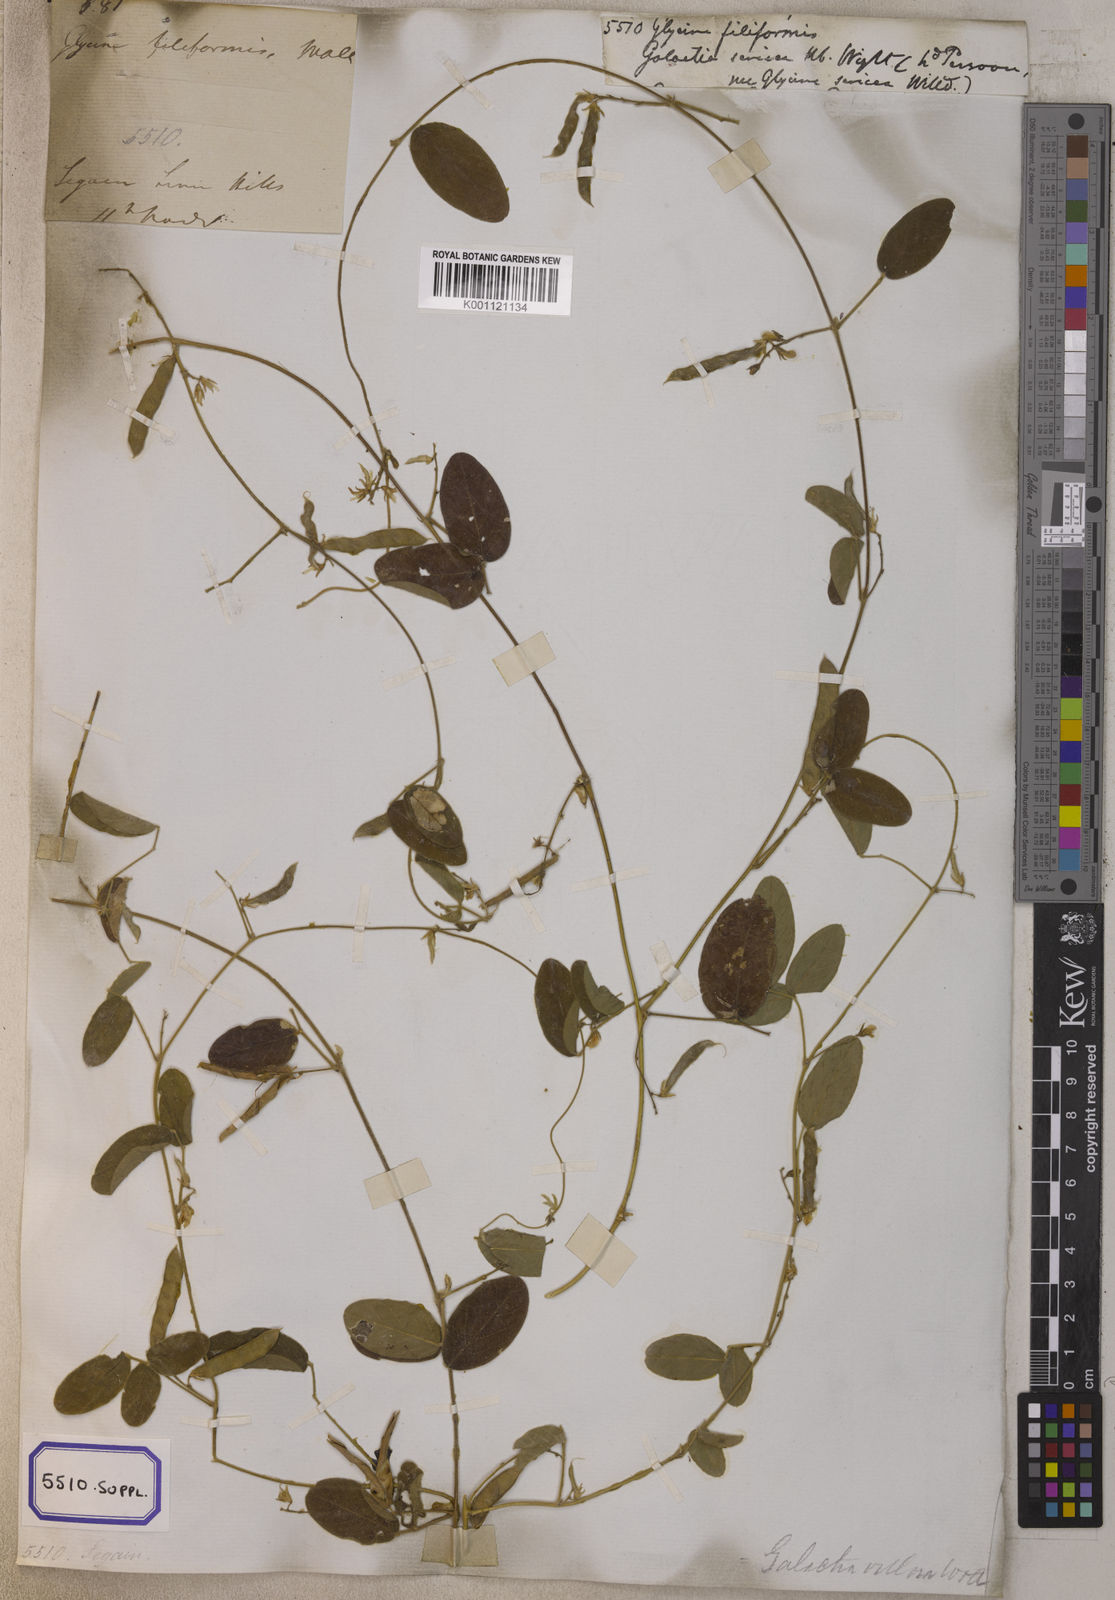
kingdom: Plantae
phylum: Tracheophyta
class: Magnoliopsida
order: Fabales
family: Fabaceae
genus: Teramnus
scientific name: Teramnus labialis
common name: Blue wiss
